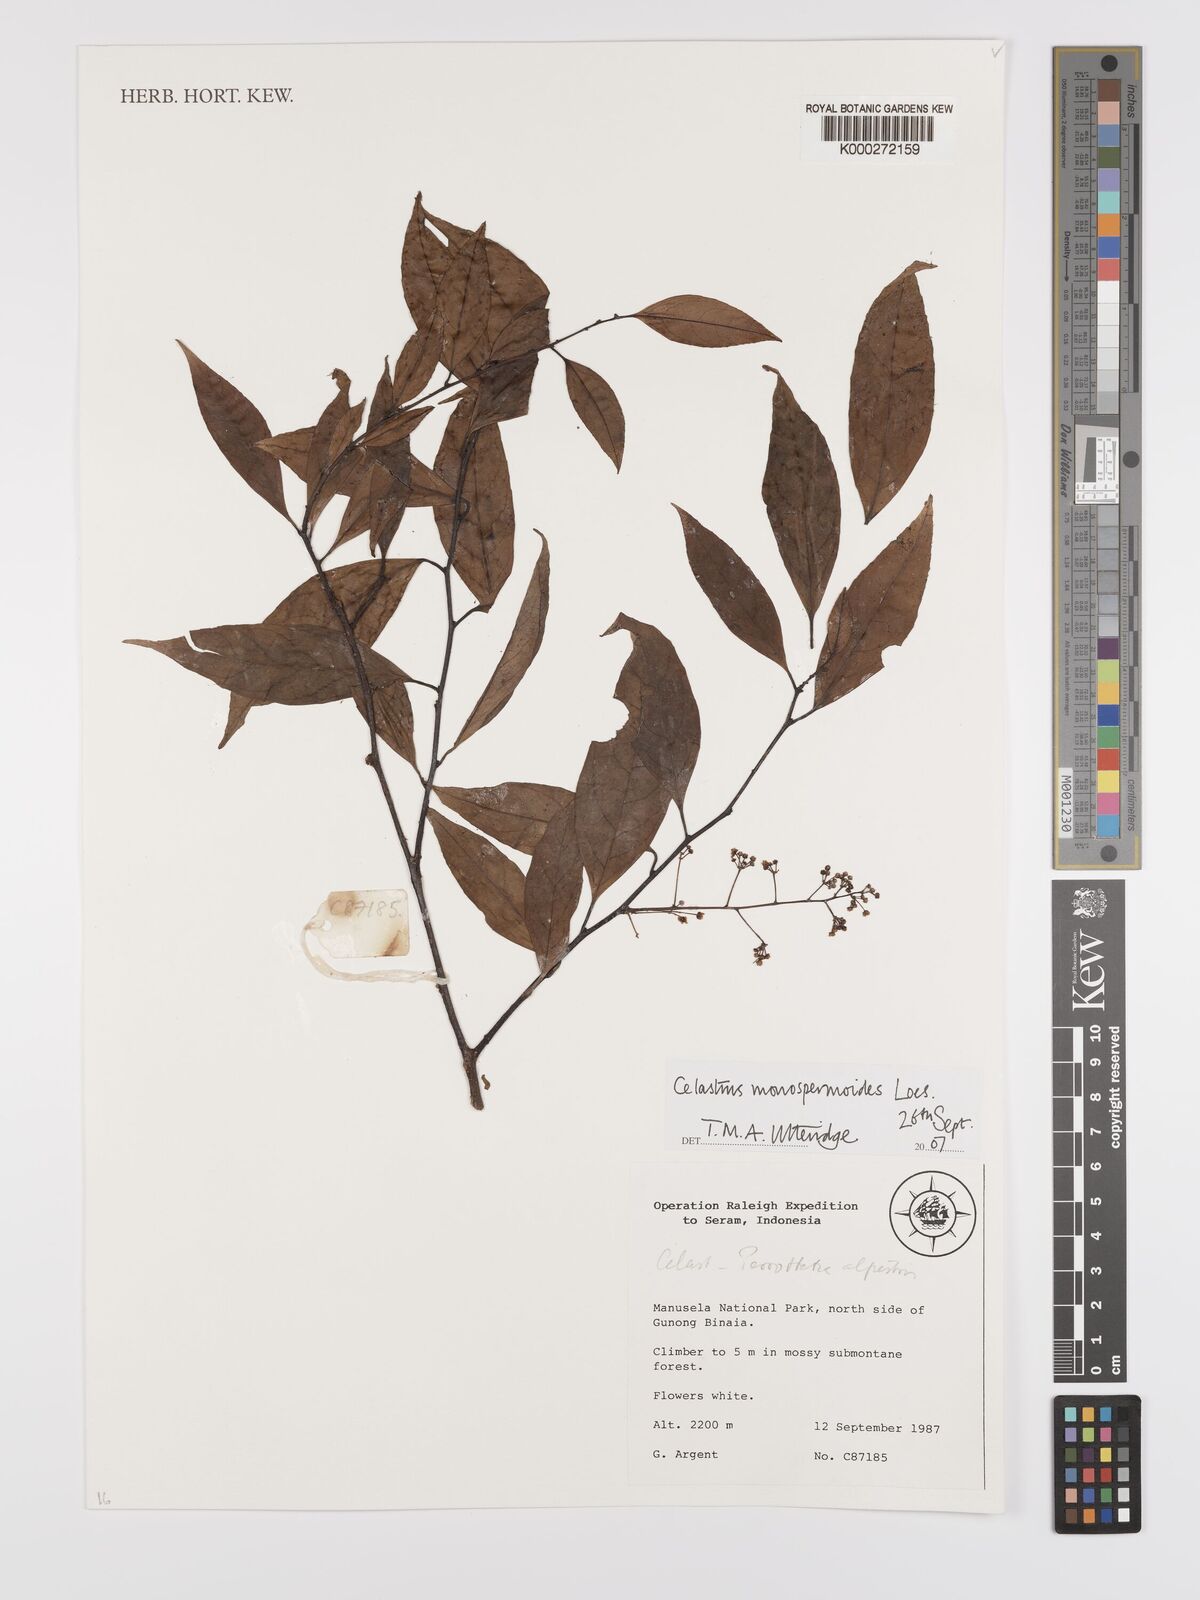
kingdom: Plantae
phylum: Tracheophyta
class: Magnoliopsida
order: Celastrales
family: Celastraceae
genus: Celastrus
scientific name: Celastrus monospermoides
